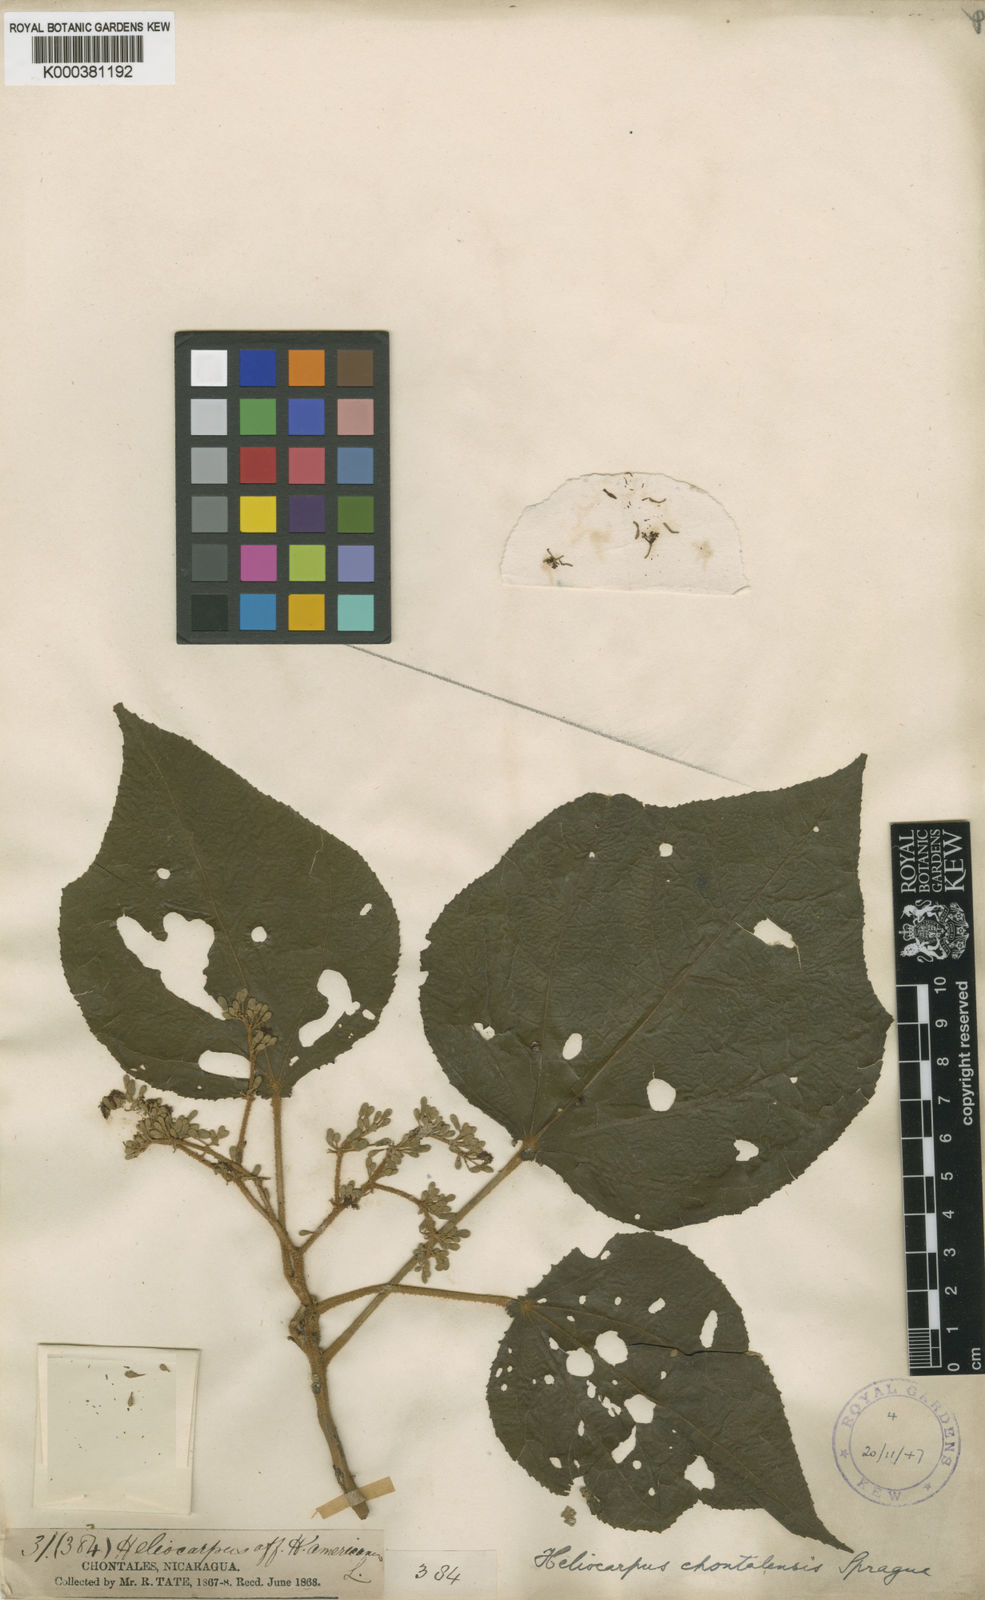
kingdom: Plantae
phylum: Tracheophyta
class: Magnoliopsida
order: Malvales
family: Malvaceae
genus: Heliocarpus
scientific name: Heliocarpus appendiculatus
